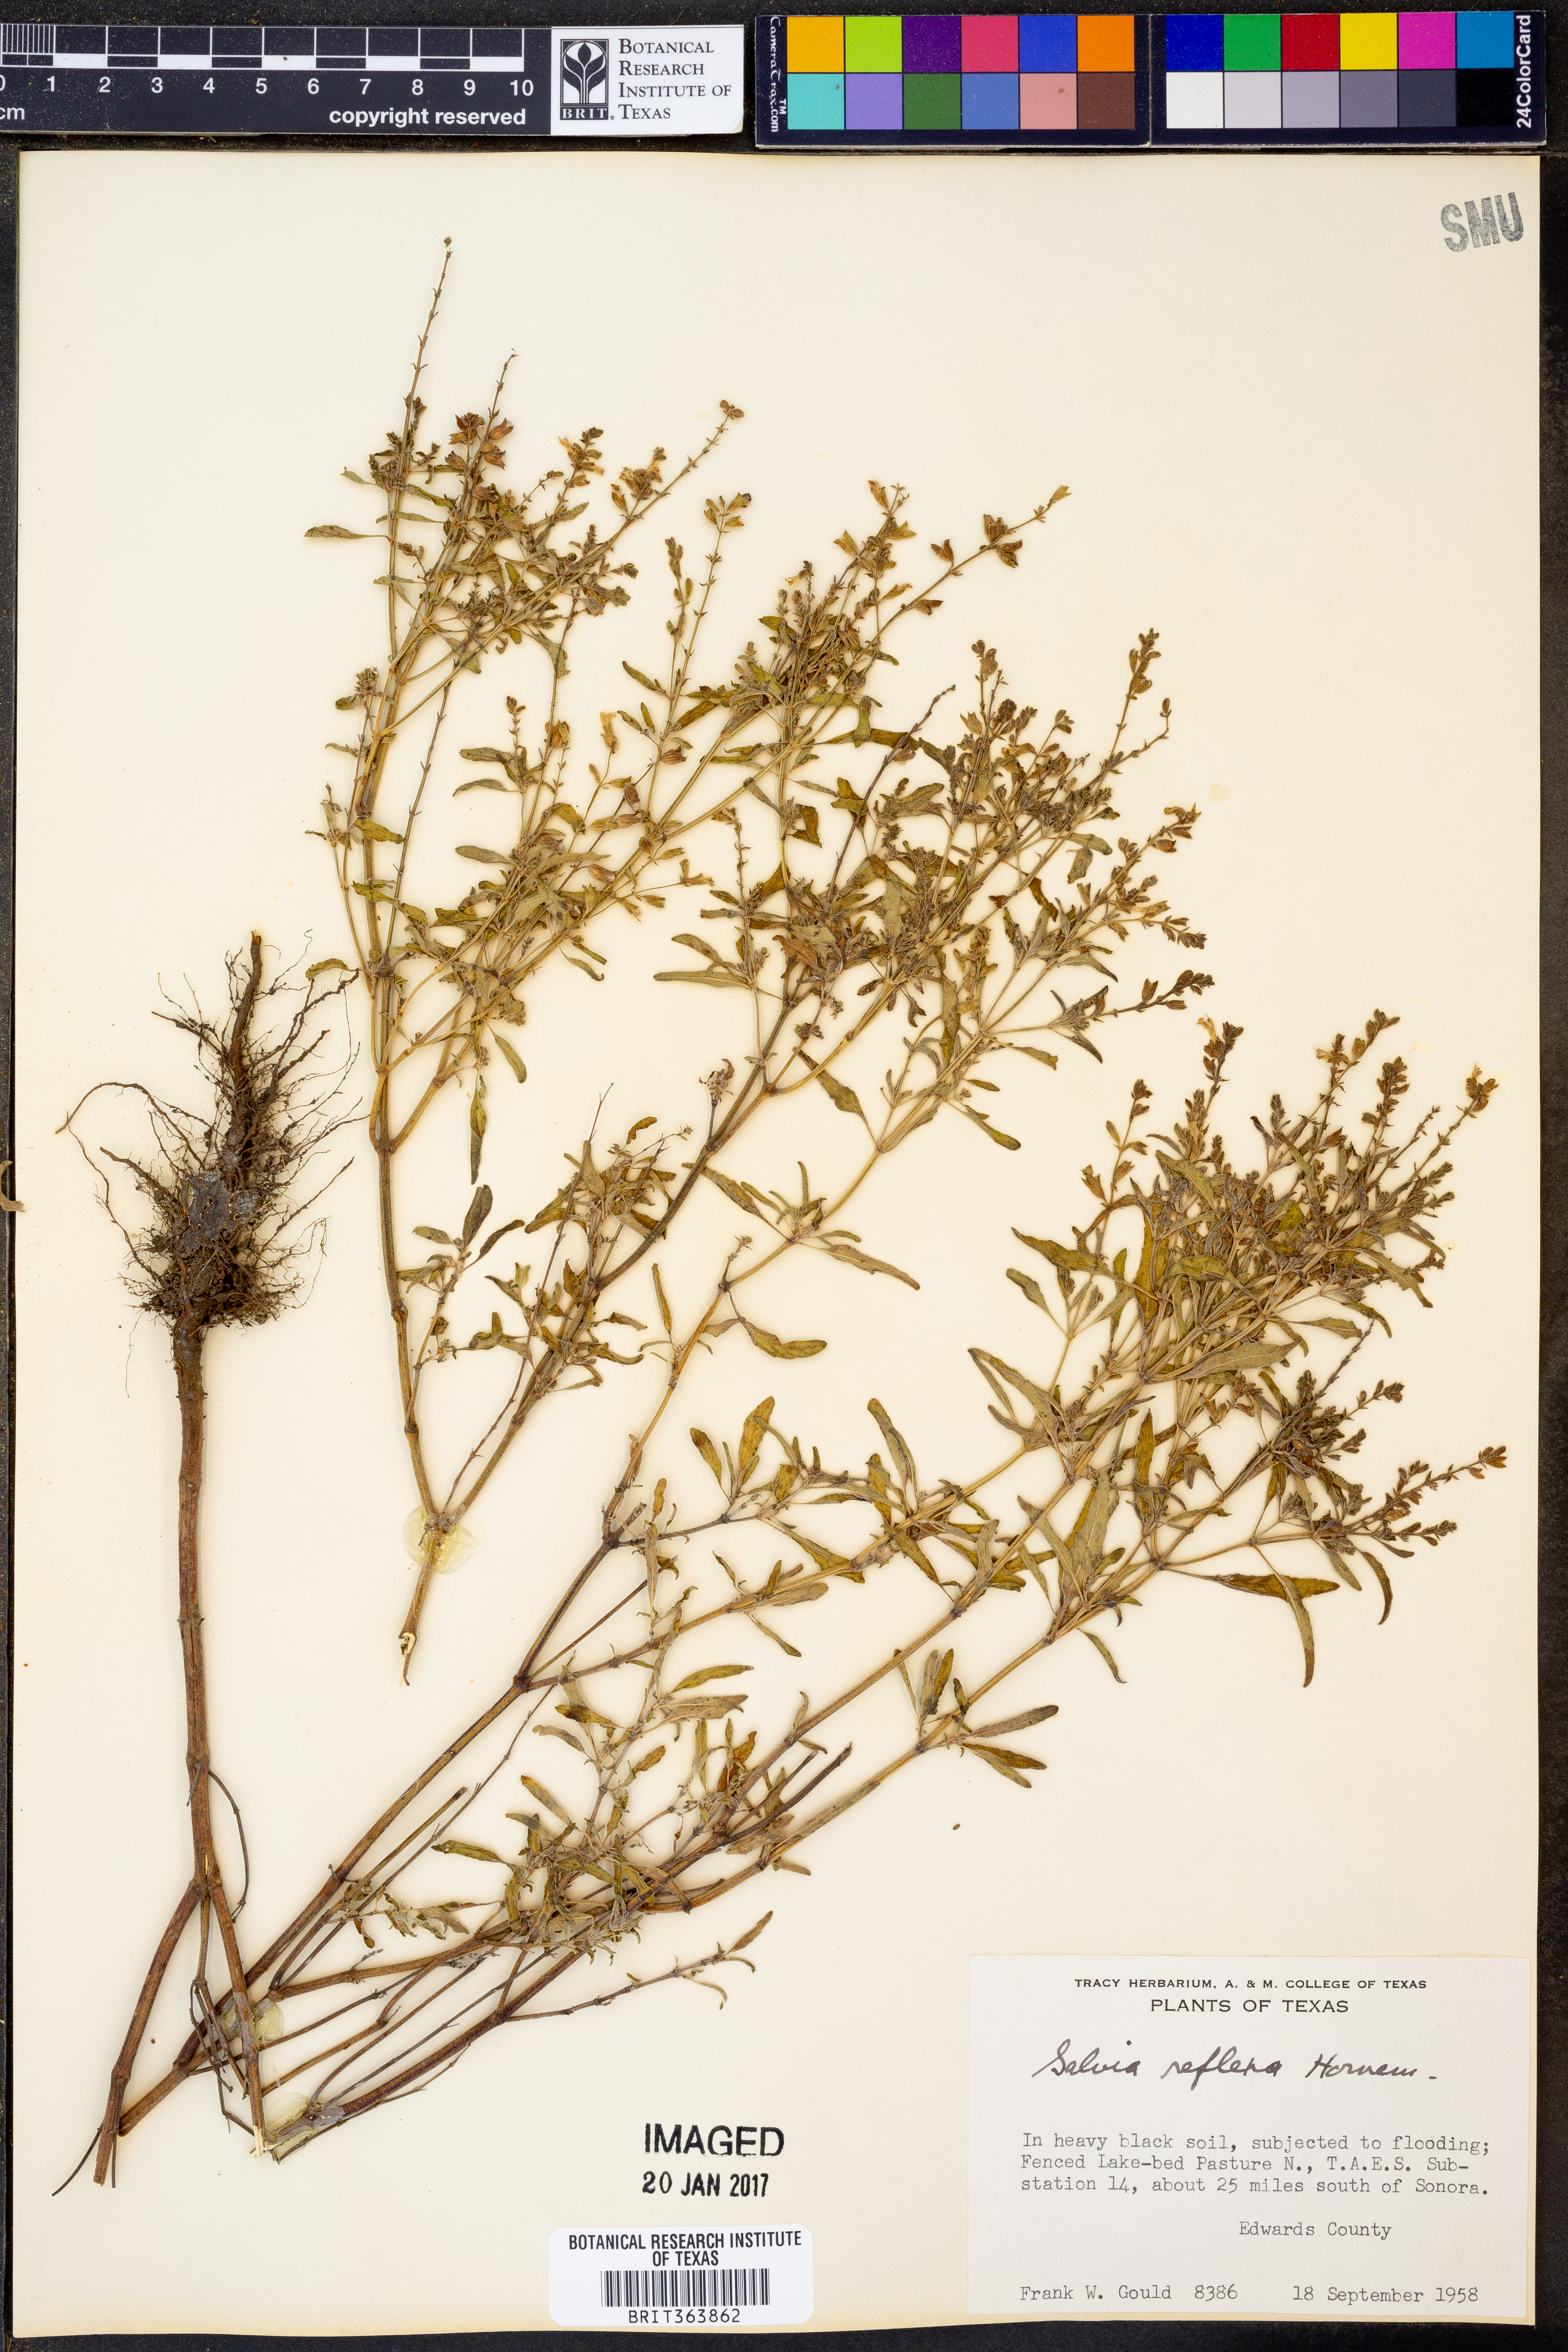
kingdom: Plantae
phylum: Tracheophyta
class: Magnoliopsida
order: Lamiales
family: Lamiaceae
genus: Salvia
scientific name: Salvia reflexa
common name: Mintweed
